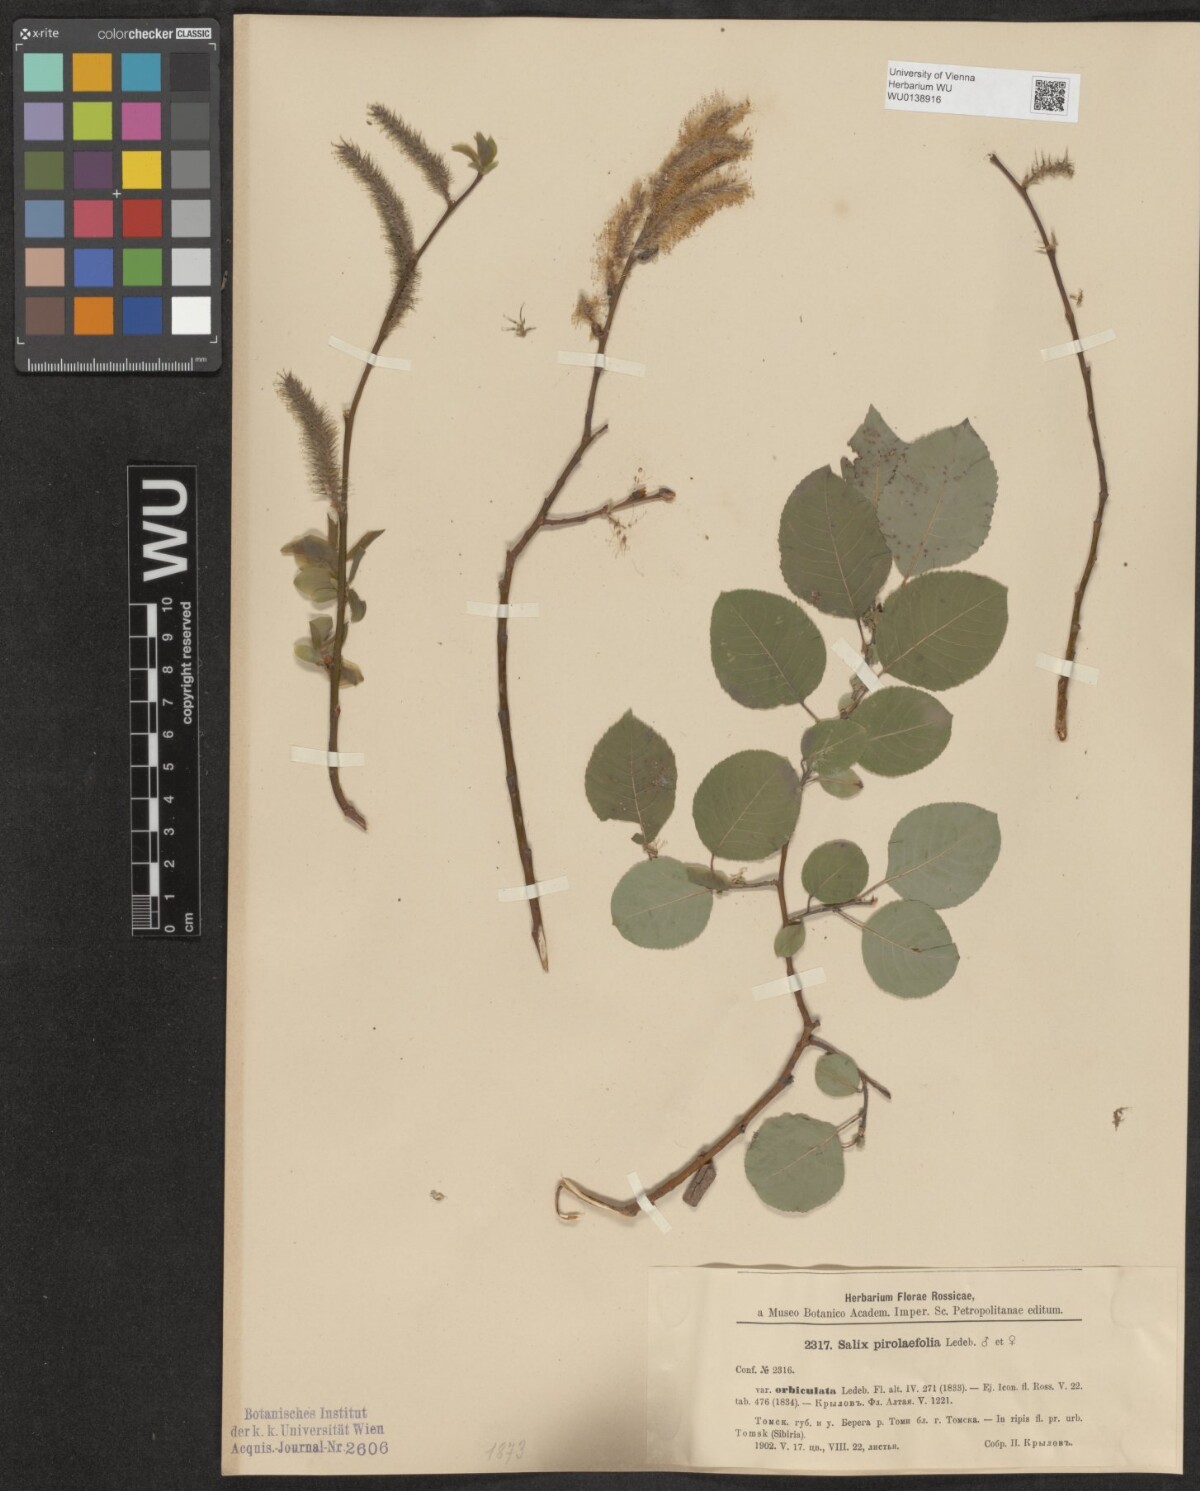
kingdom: Plantae
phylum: Tracheophyta
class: Magnoliopsida
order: Malpighiales
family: Salicaceae
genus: Salix
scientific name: Salix pyrolifolia
